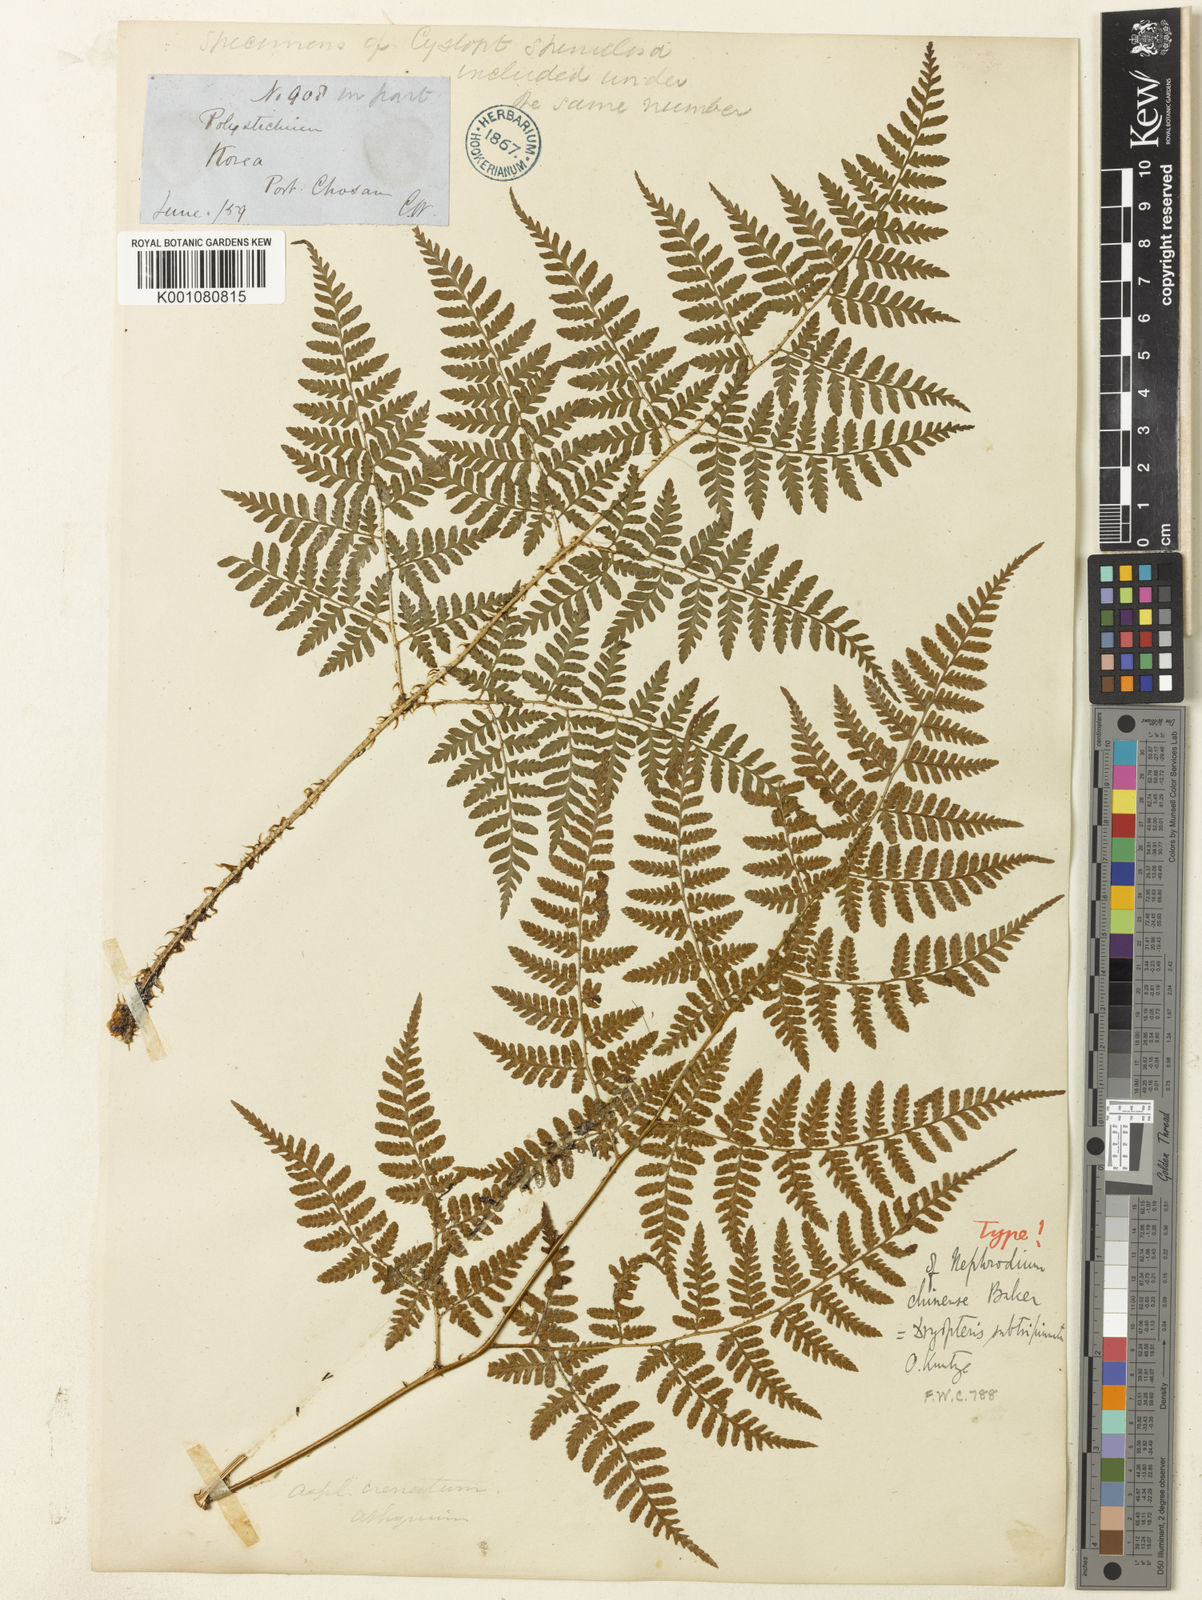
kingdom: Plantae
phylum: Tracheophyta
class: Polypodiopsida
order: Polypodiales
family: Dryopteridaceae
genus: Dryopteris
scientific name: Dryopteris chinensis
